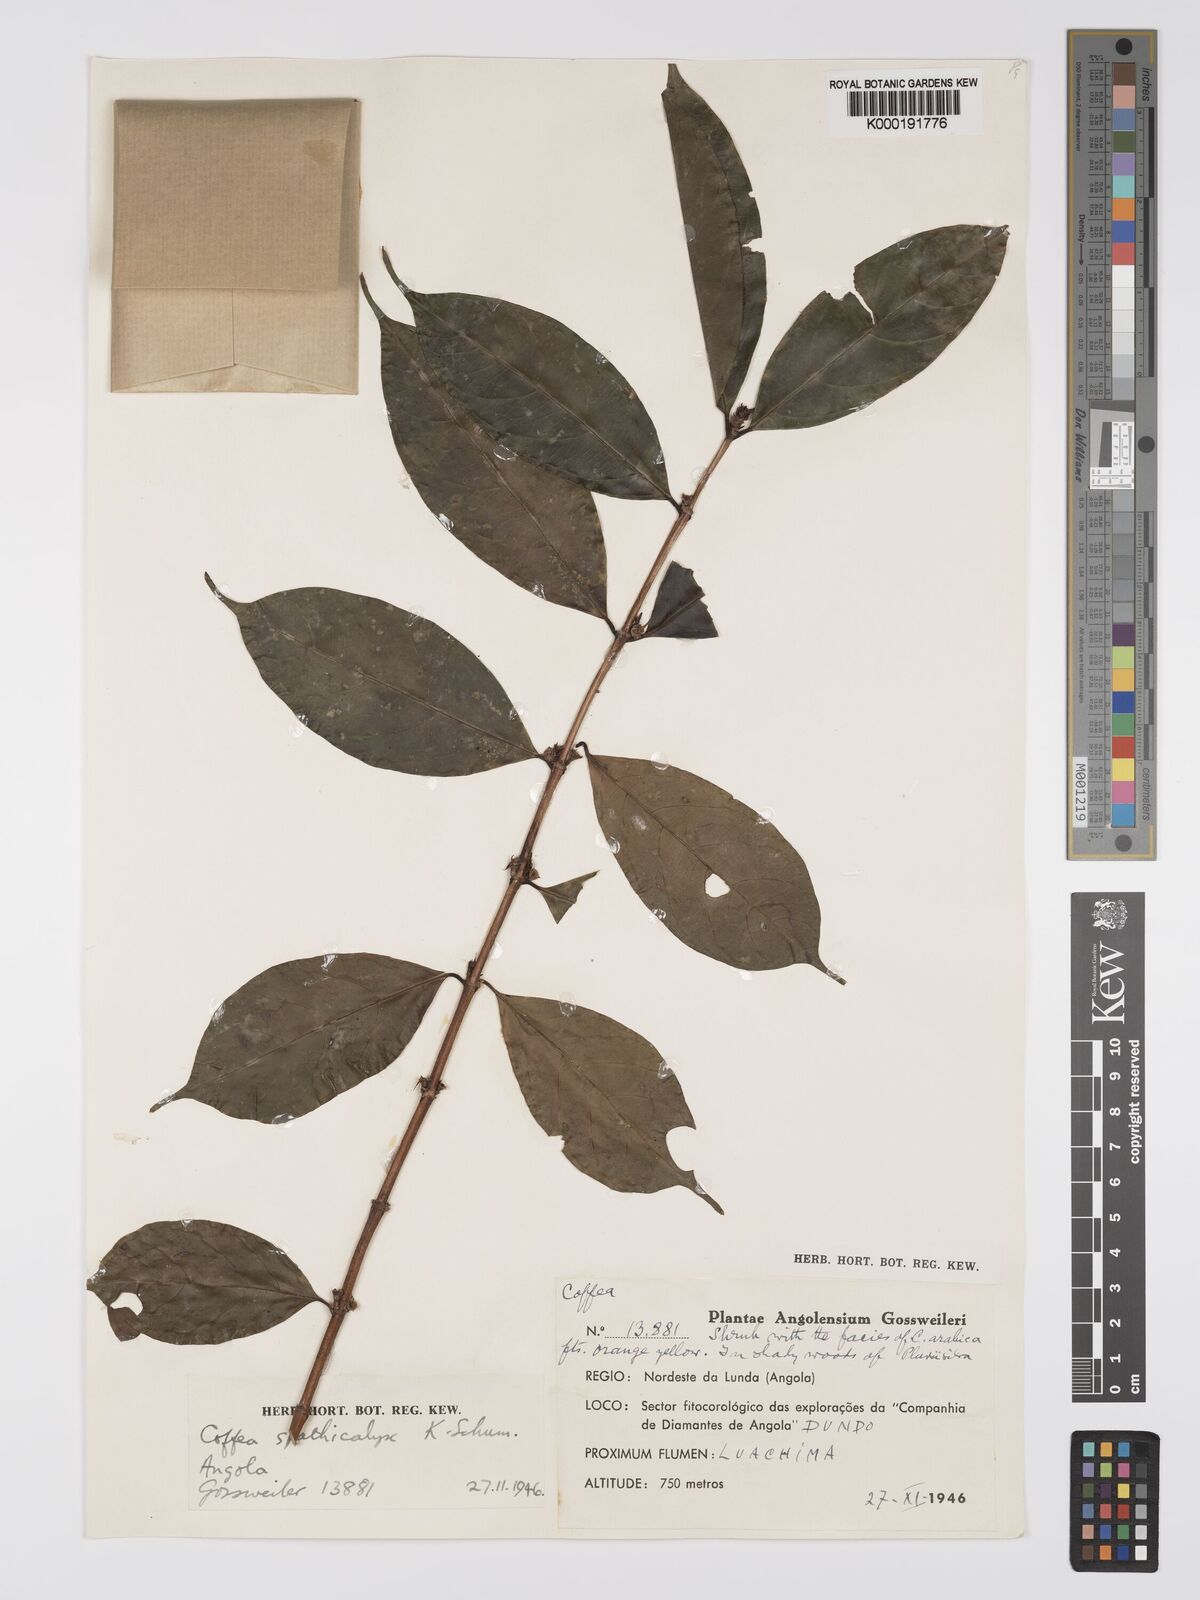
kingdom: Plantae
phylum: Tracheophyta
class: Magnoliopsida
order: Gentianales
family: Rubiaceae
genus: Calycosiphonia
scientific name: Calycosiphonia
